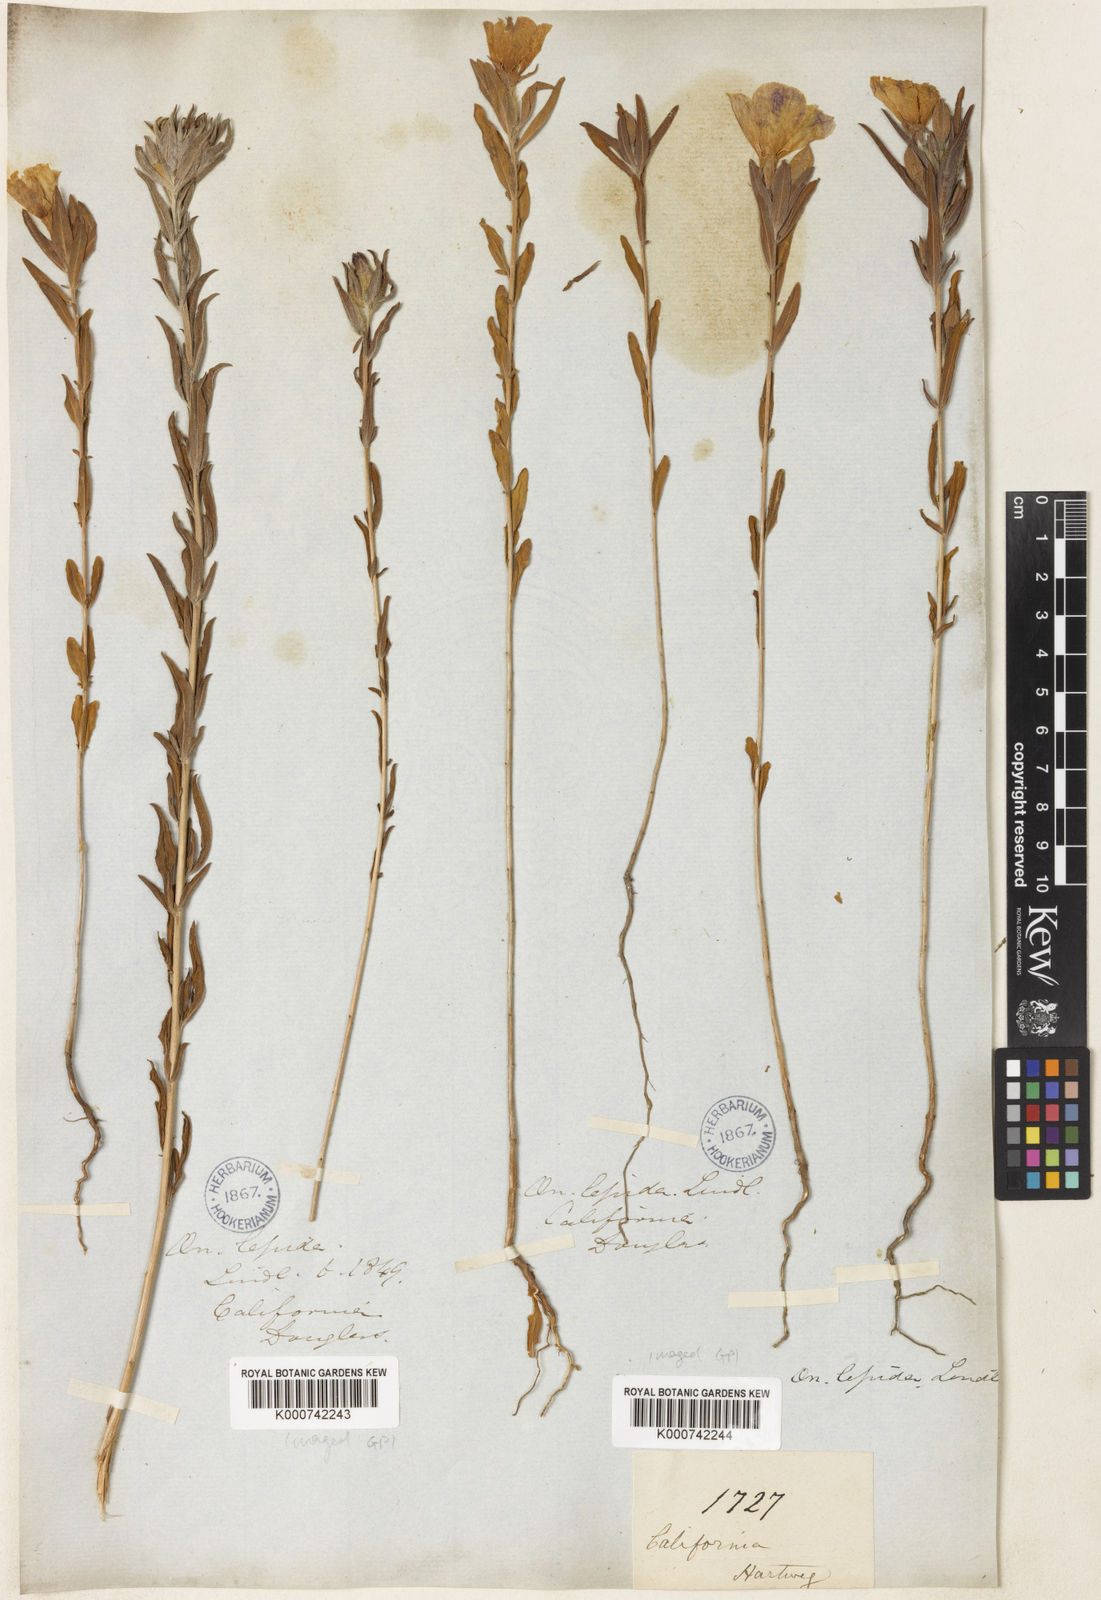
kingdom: Plantae
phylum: Tracheophyta
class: Magnoliopsida
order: Myrtales
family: Onagraceae
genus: Clarkia
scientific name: Clarkia purpurea
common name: Purple clarkia
